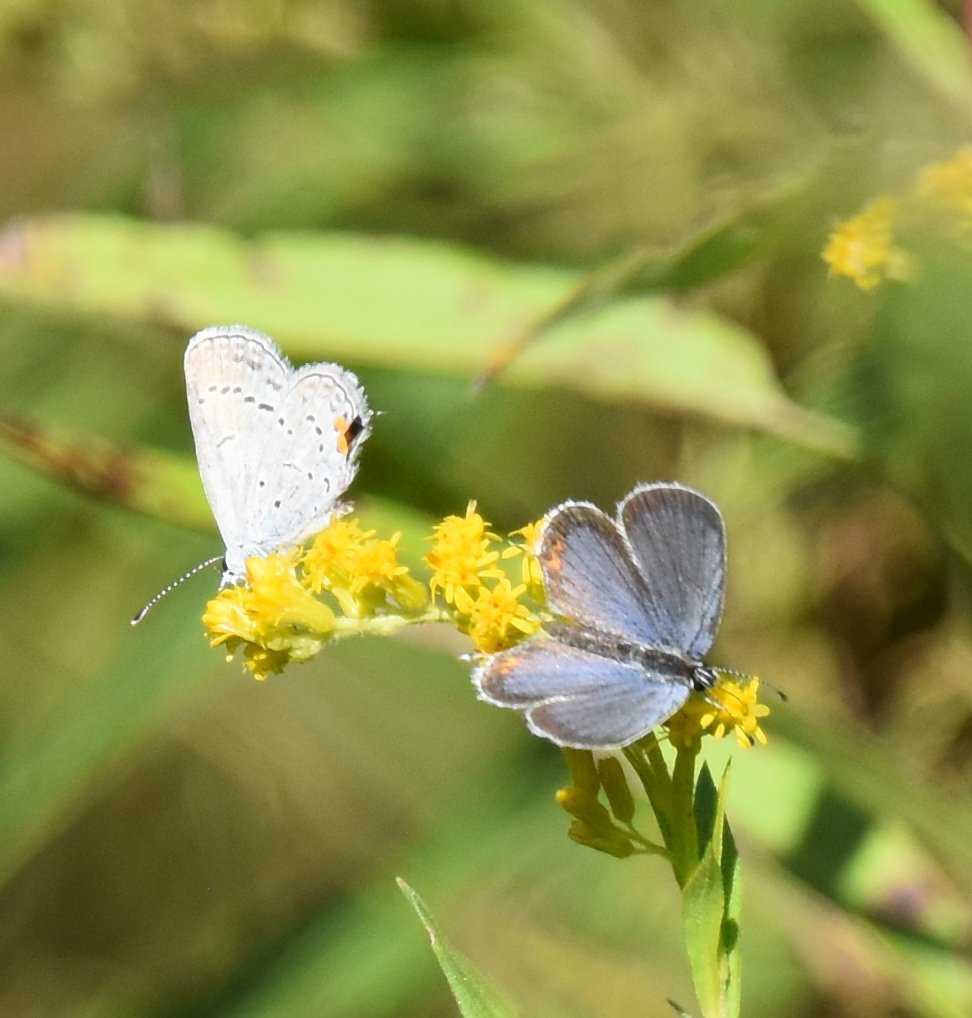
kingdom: Animalia
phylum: Arthropoda
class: Insecta
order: Lepidoptera
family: Lycaenidae
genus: Elkalyce
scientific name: Elkalyce comyntas
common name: Eastern Tailed-Blue
